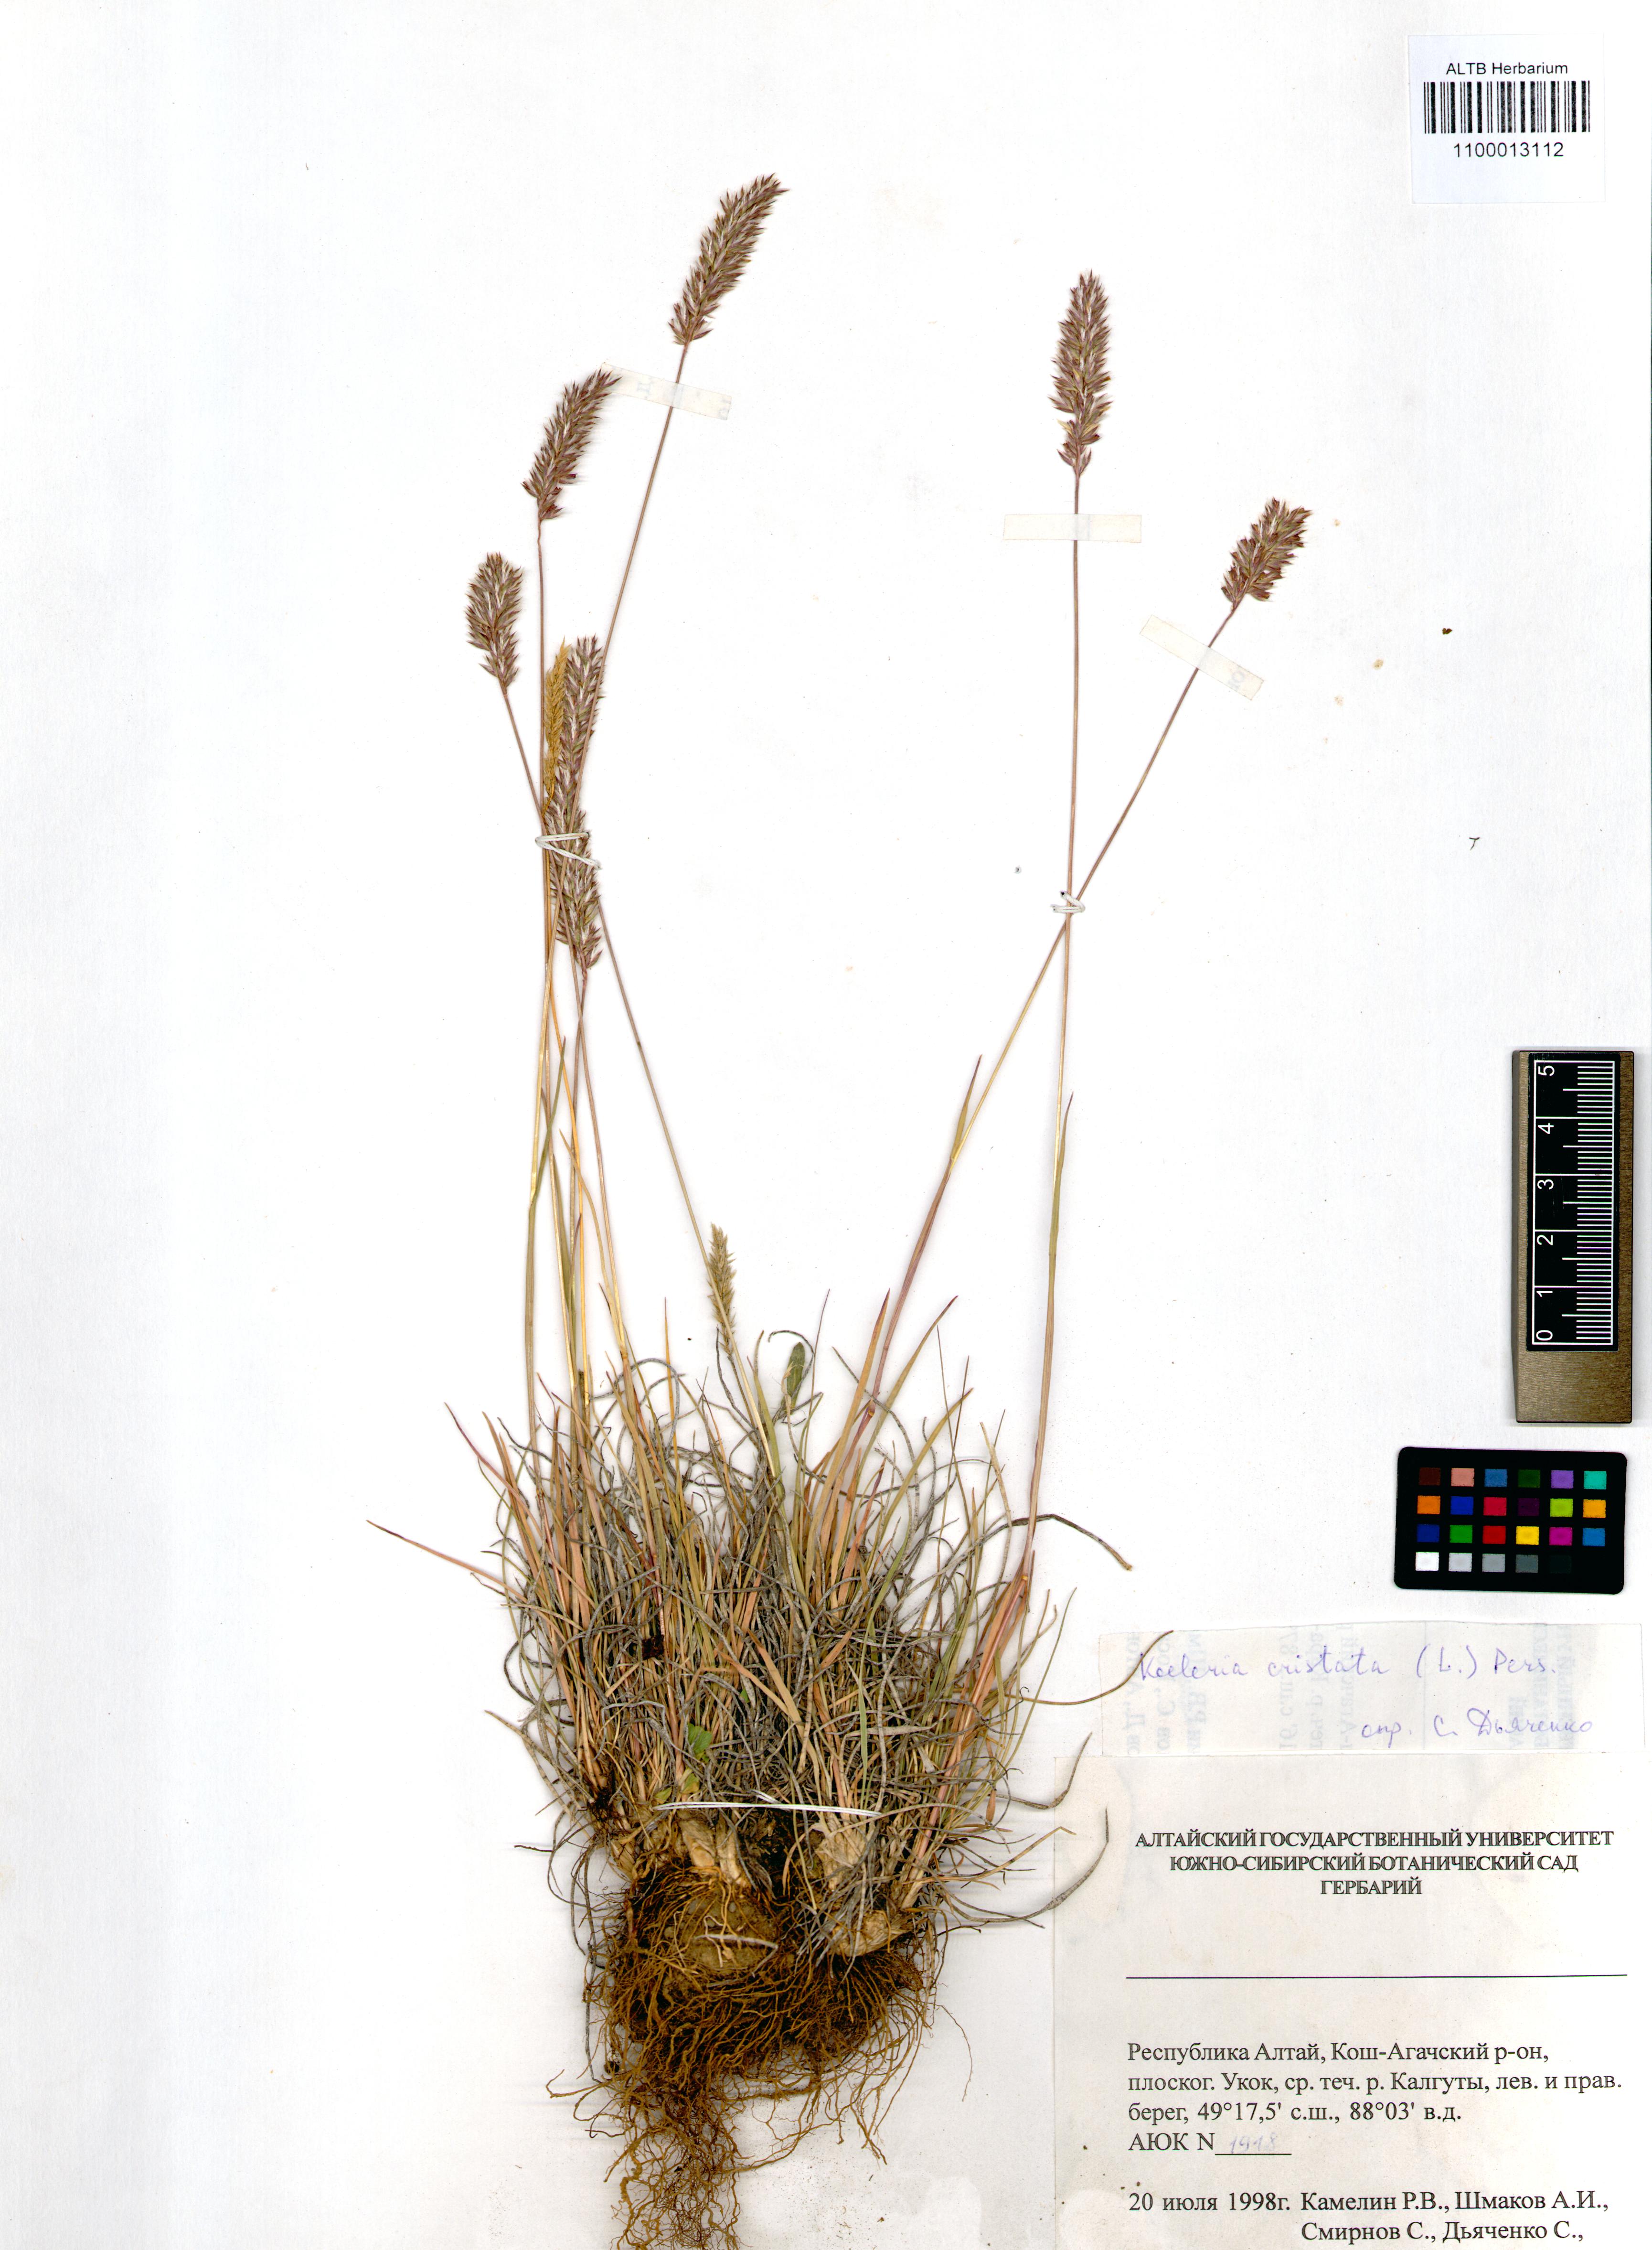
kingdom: Plantae
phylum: Tracheophyta
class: Liliopsida
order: Poales
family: Poaceae
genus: Koeleria
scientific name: Koeleria pyramidata
